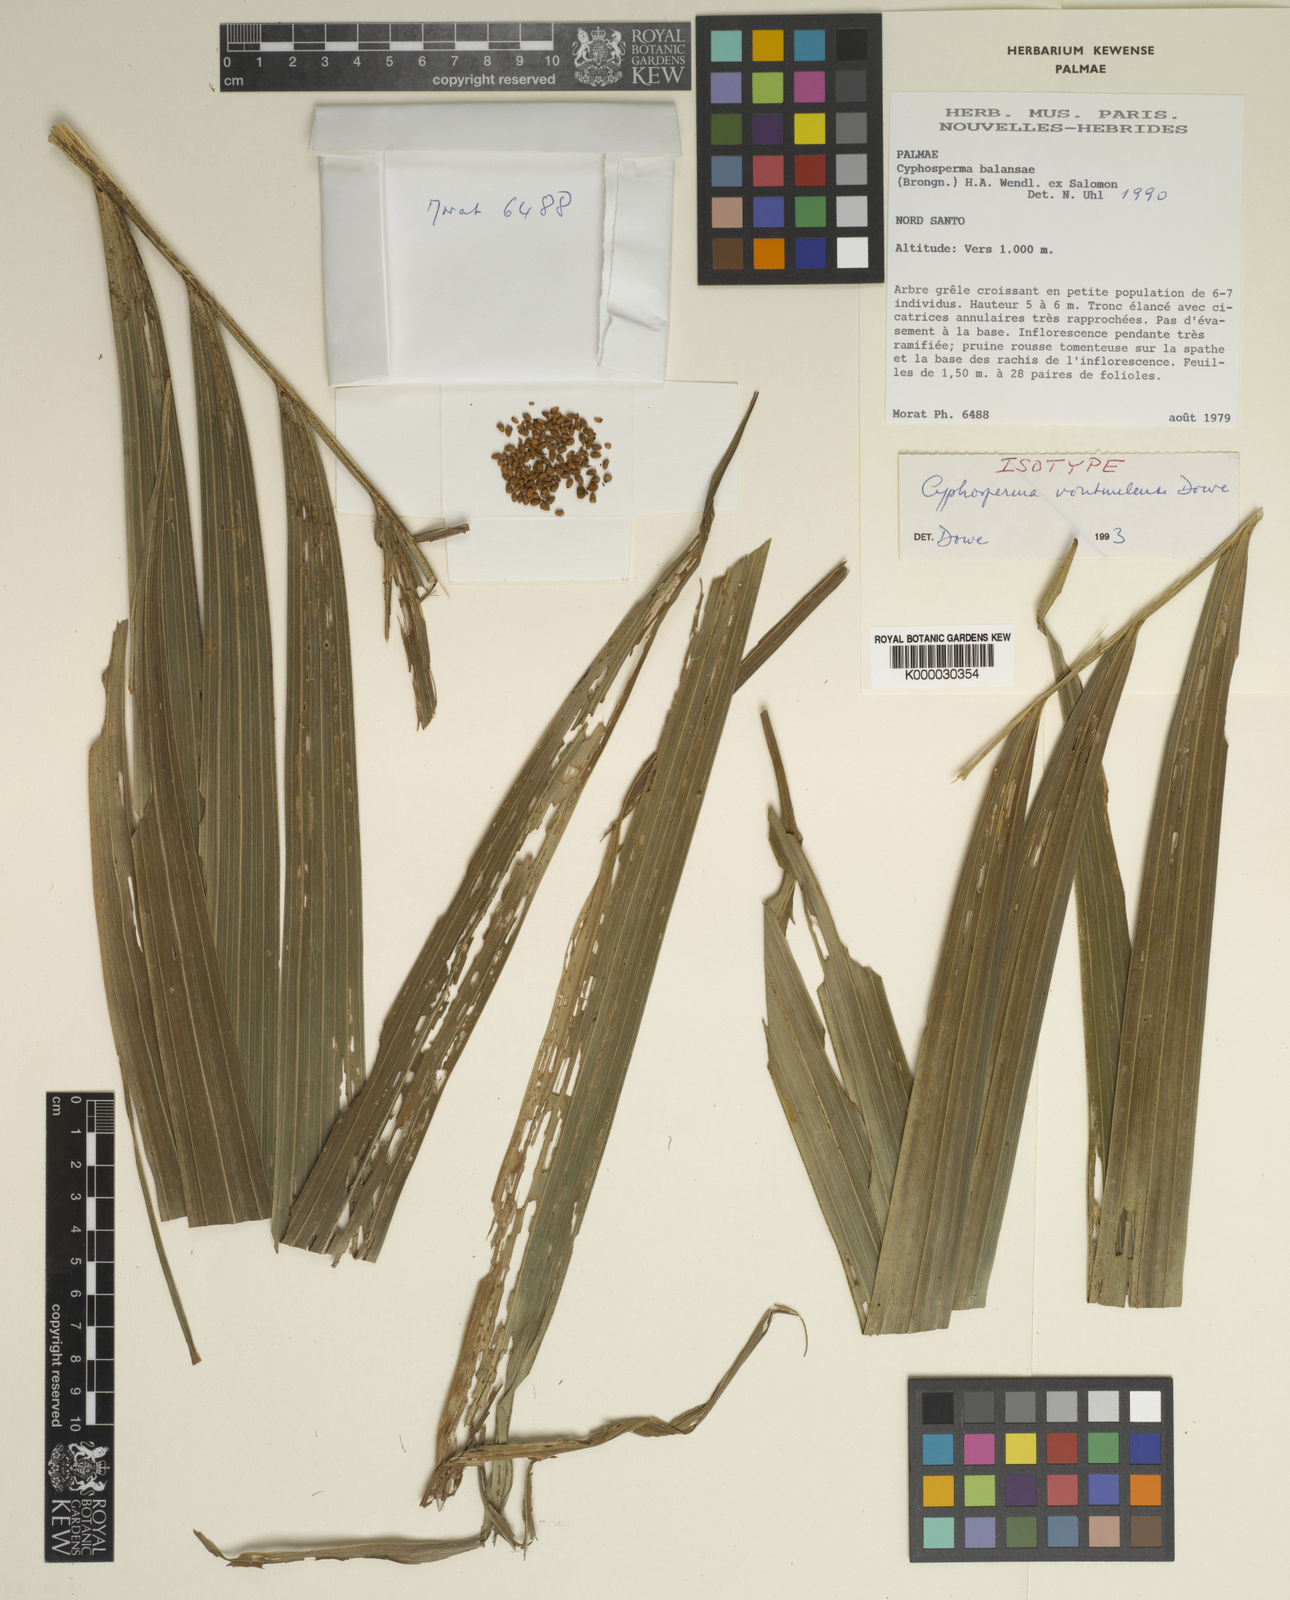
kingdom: Plantae
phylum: Tracheophyta
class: Liliopsida
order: Arecales
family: Arecaceae
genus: Cyphosperma
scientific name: Cyphosperma balansae
